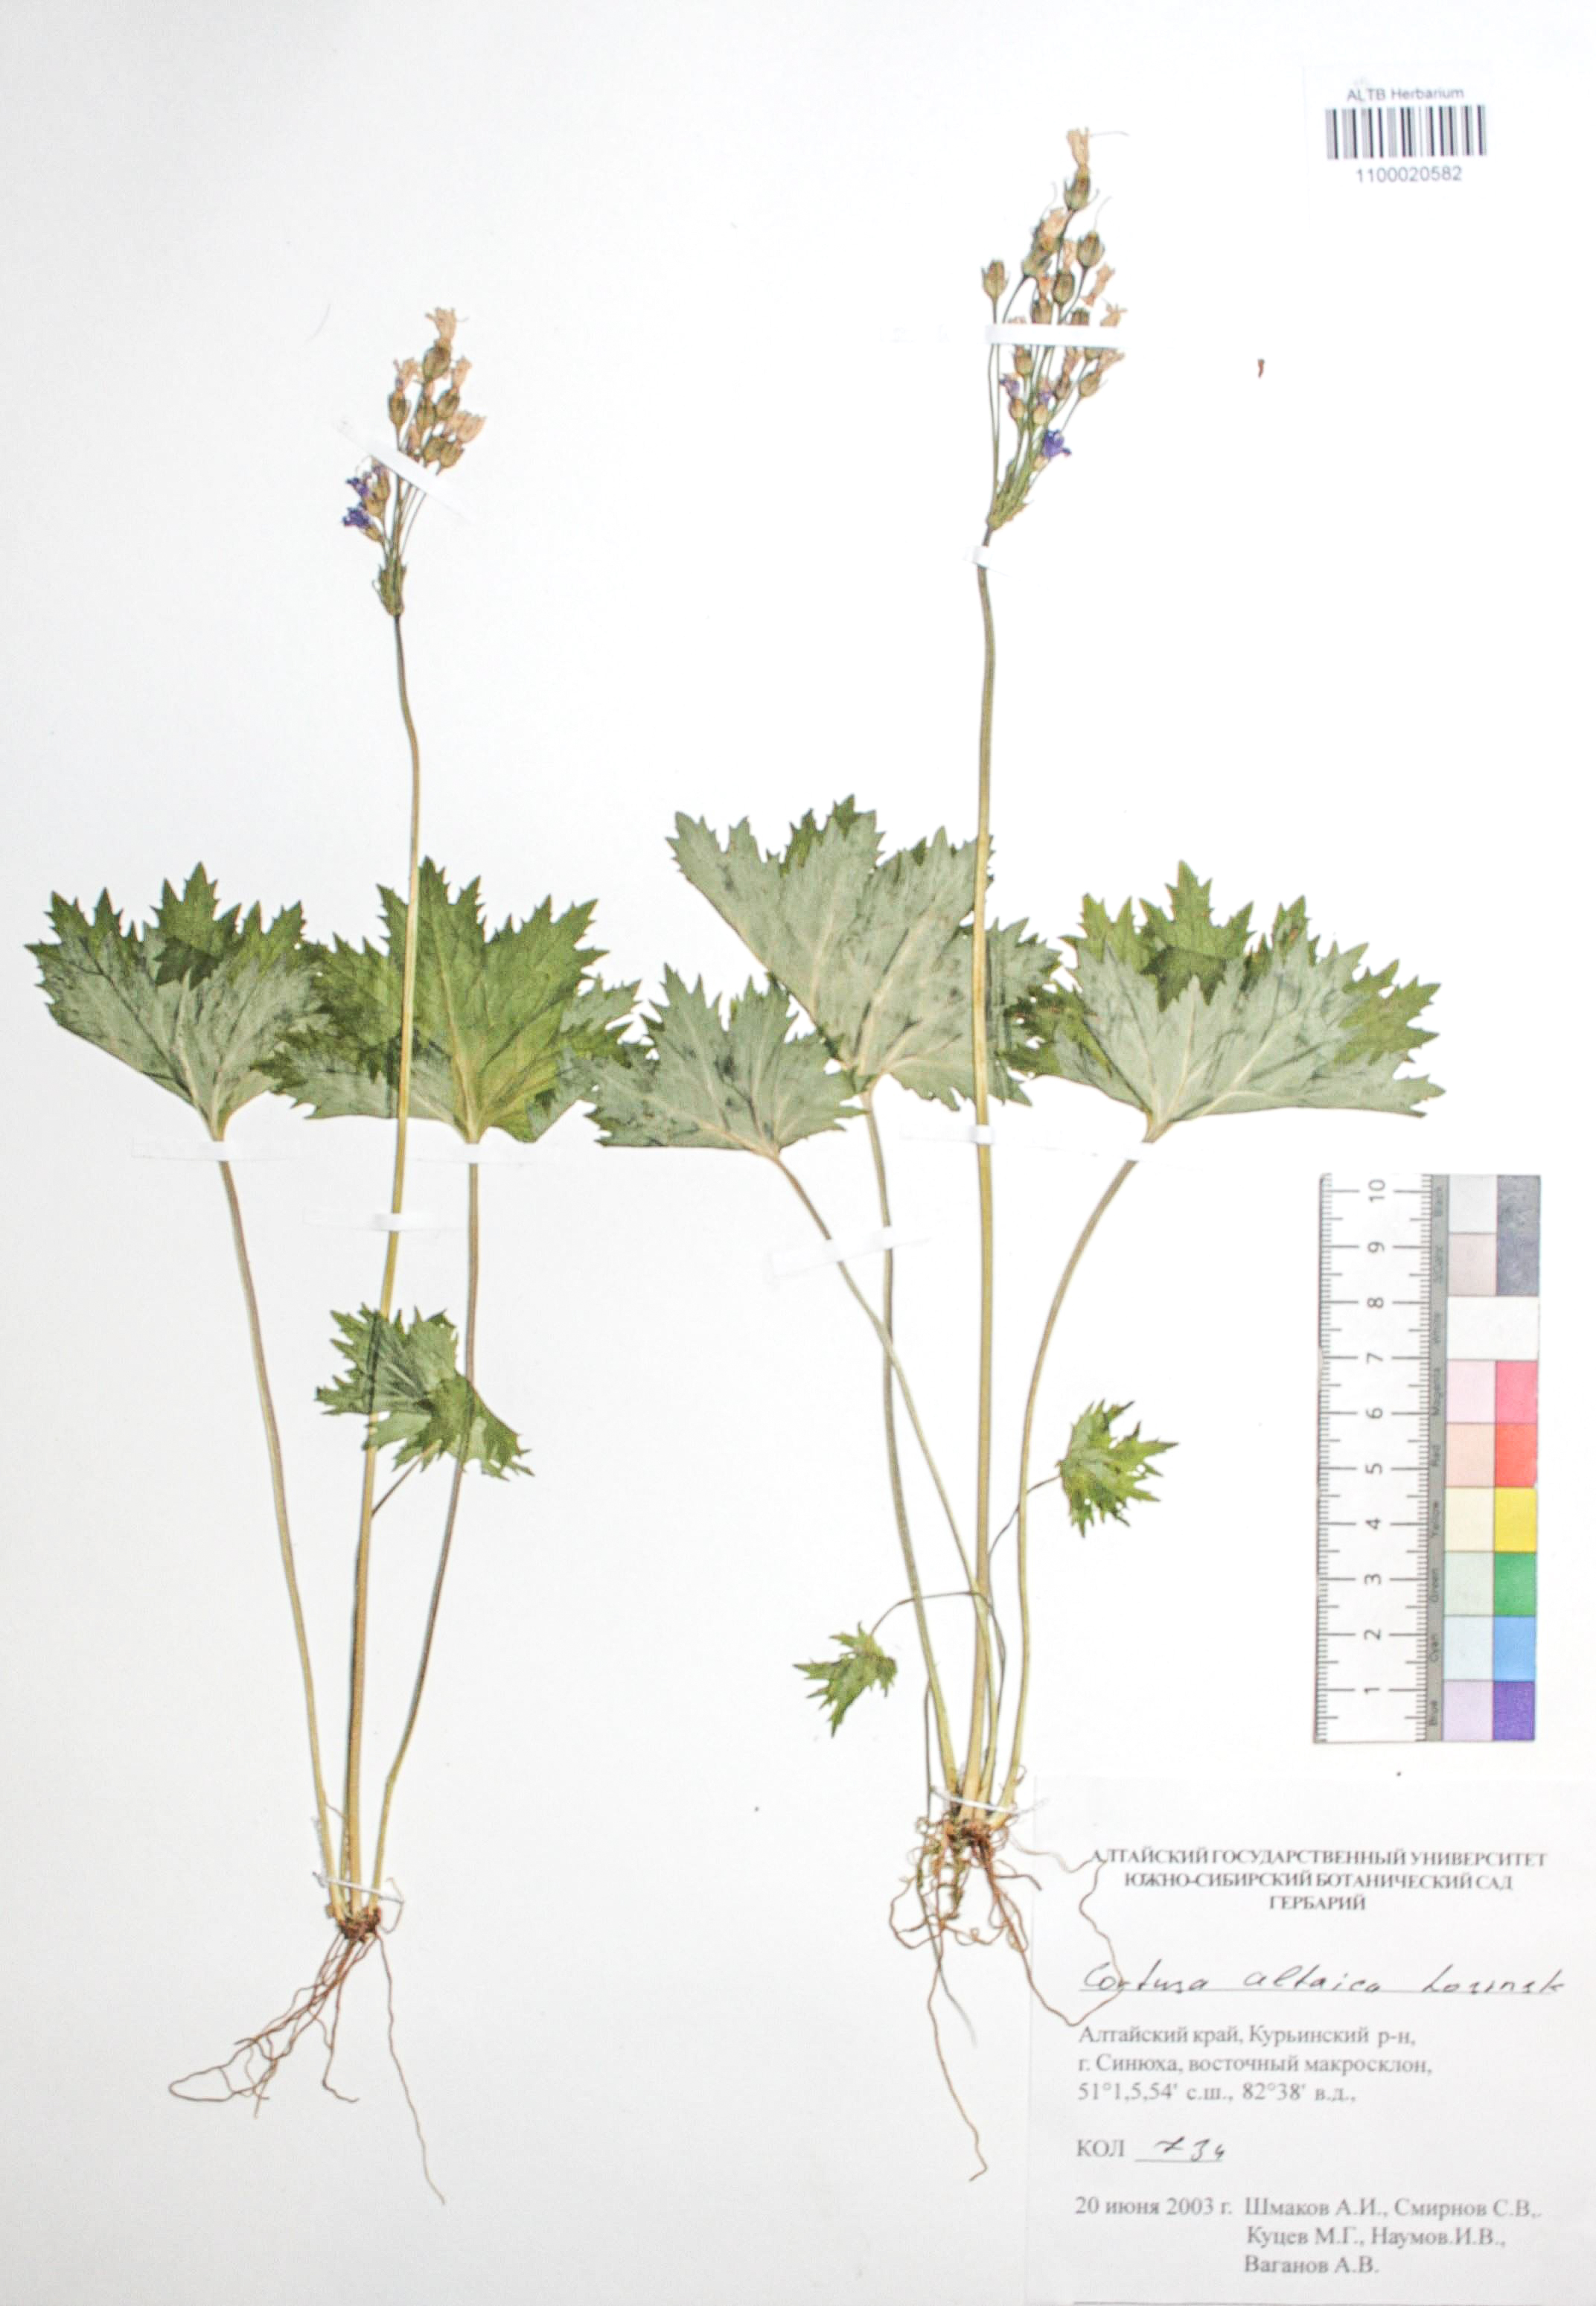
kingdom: Plantae
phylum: Tracheophyta
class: Magnoliopsida
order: Ericales
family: Primulaceae
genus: Primula
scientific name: Primula matthioli
